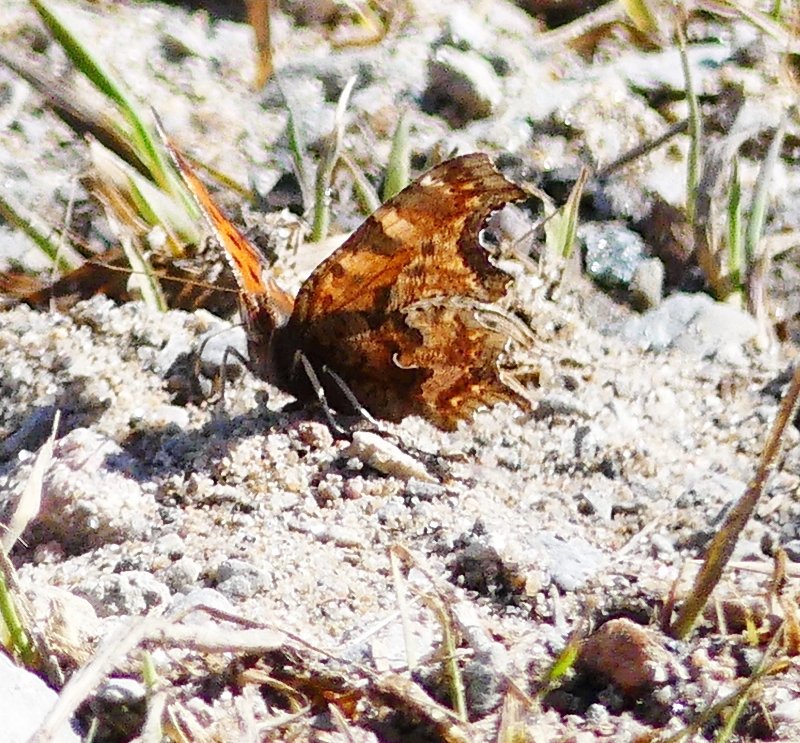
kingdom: Animalia
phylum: Arthropoda
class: Insecta
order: Lepidoptera
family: Nymphalidae
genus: Polygonia
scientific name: Polygonia comma
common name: Eastern Comma
